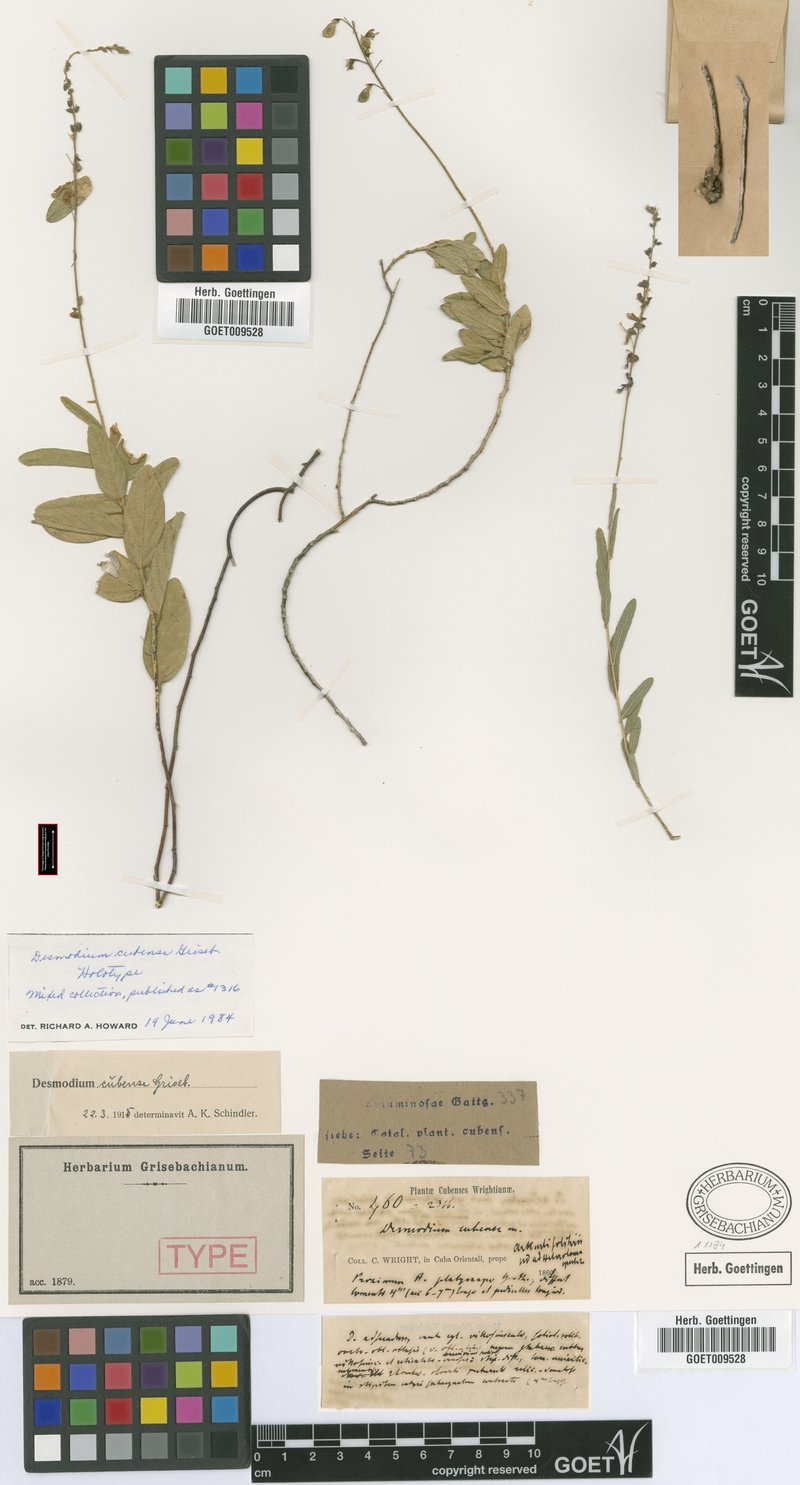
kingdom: Plantae
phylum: Tracheophyta
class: Magnoliopsida
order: Fabales
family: Fabaceae
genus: Desmodium
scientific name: Desmodium cubense
